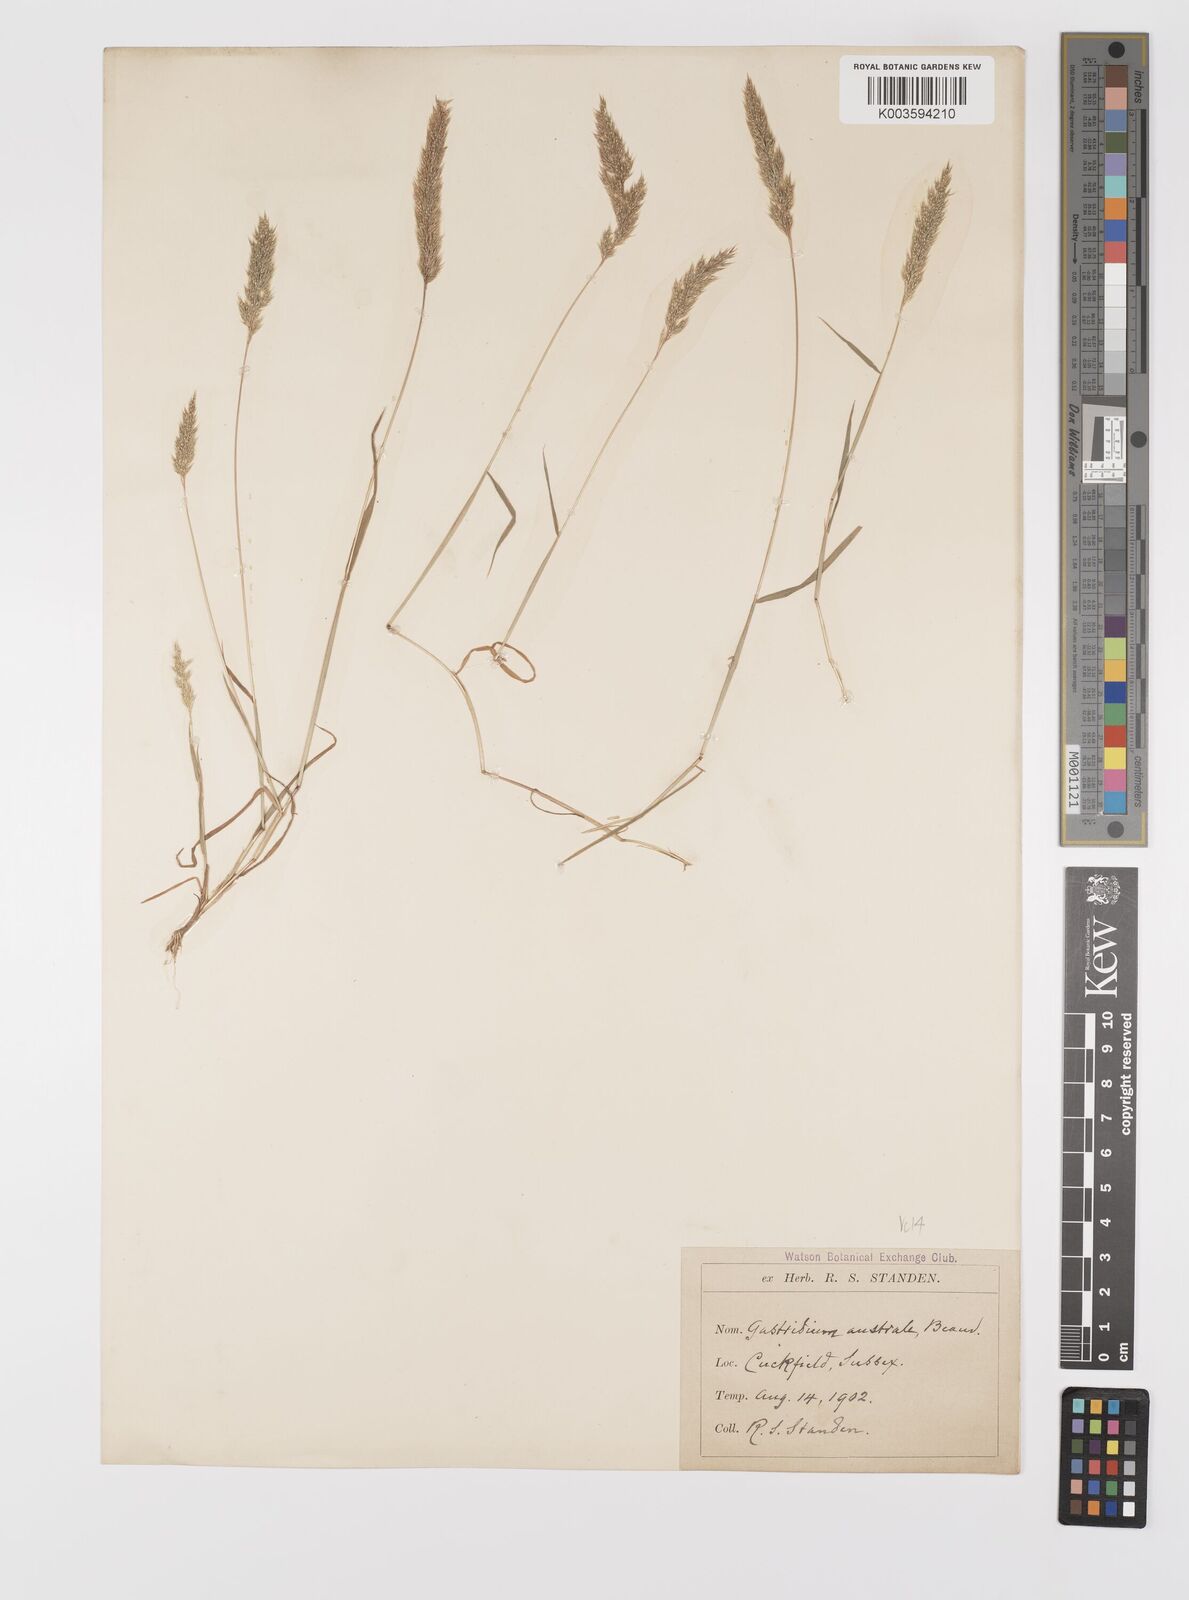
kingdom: Plantae
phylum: Tracheophyta
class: Liliopsida
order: Poales
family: Poaceae
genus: Gastridium
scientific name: Gastridium ventricosum
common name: Nit-grass
